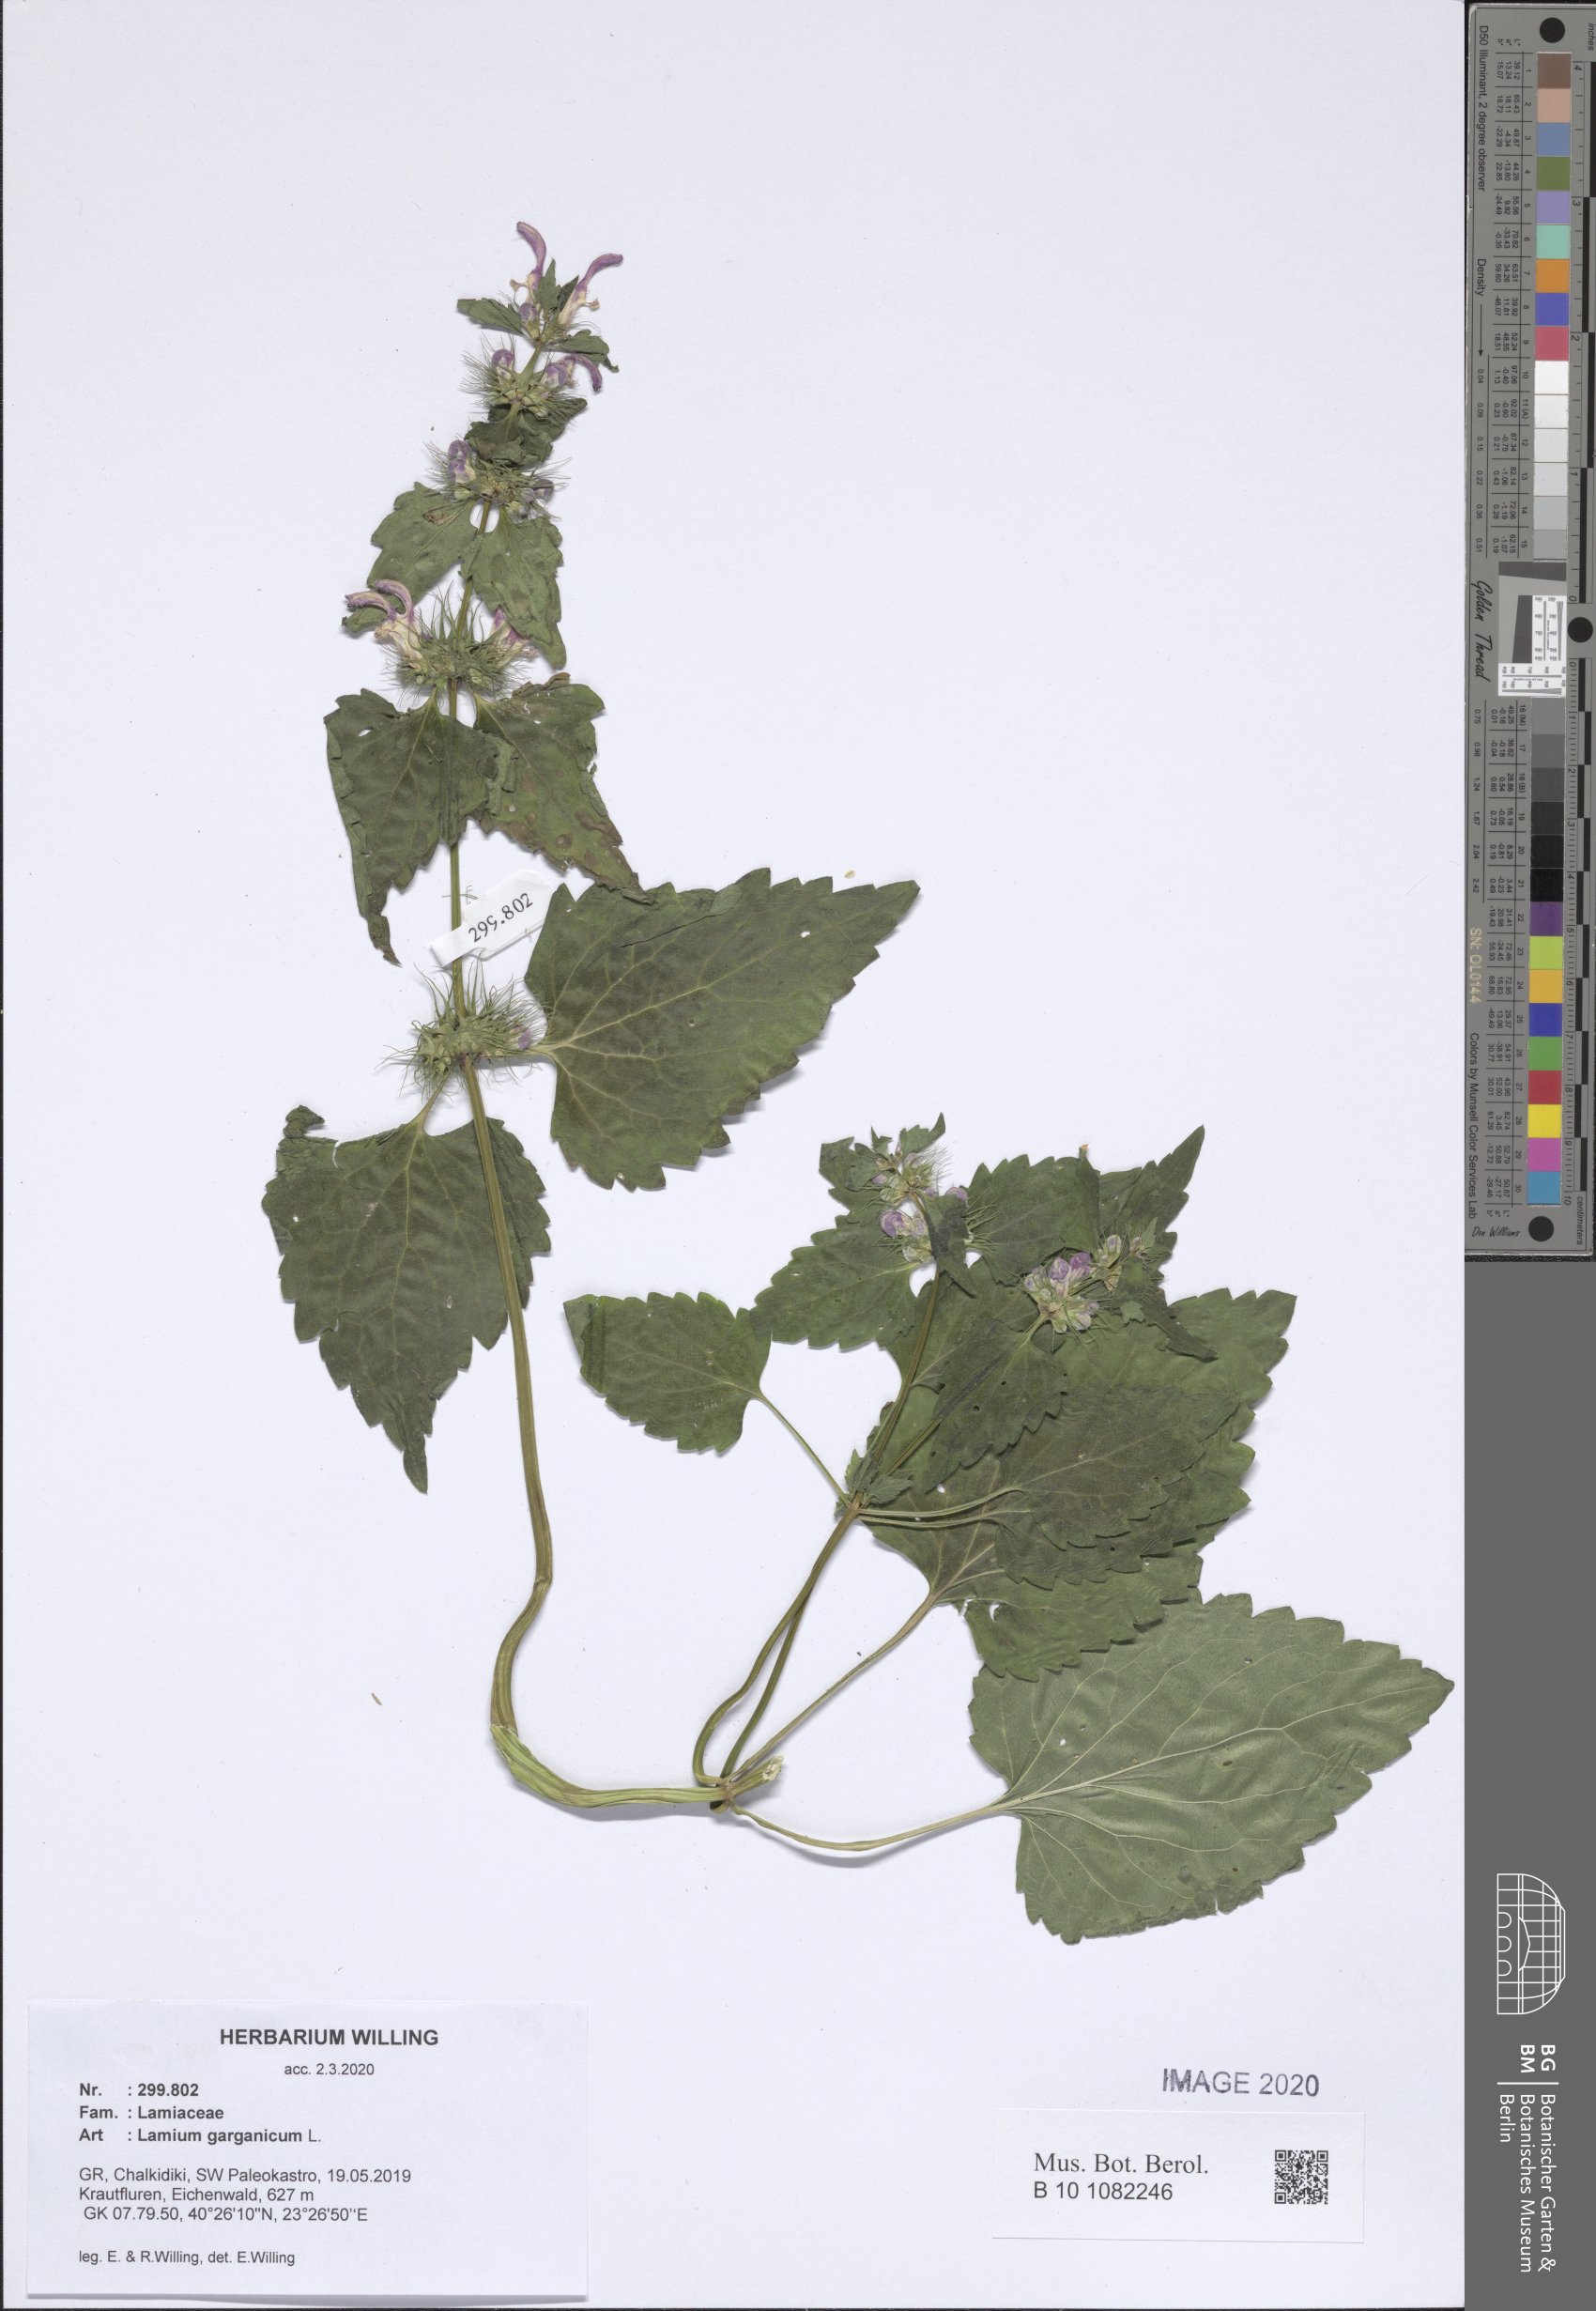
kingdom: Plantae
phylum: Tracheophyta
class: Magnoliopsida
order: Lamiales
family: Lamiaceae
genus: Lamium
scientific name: Lamium garganicum
